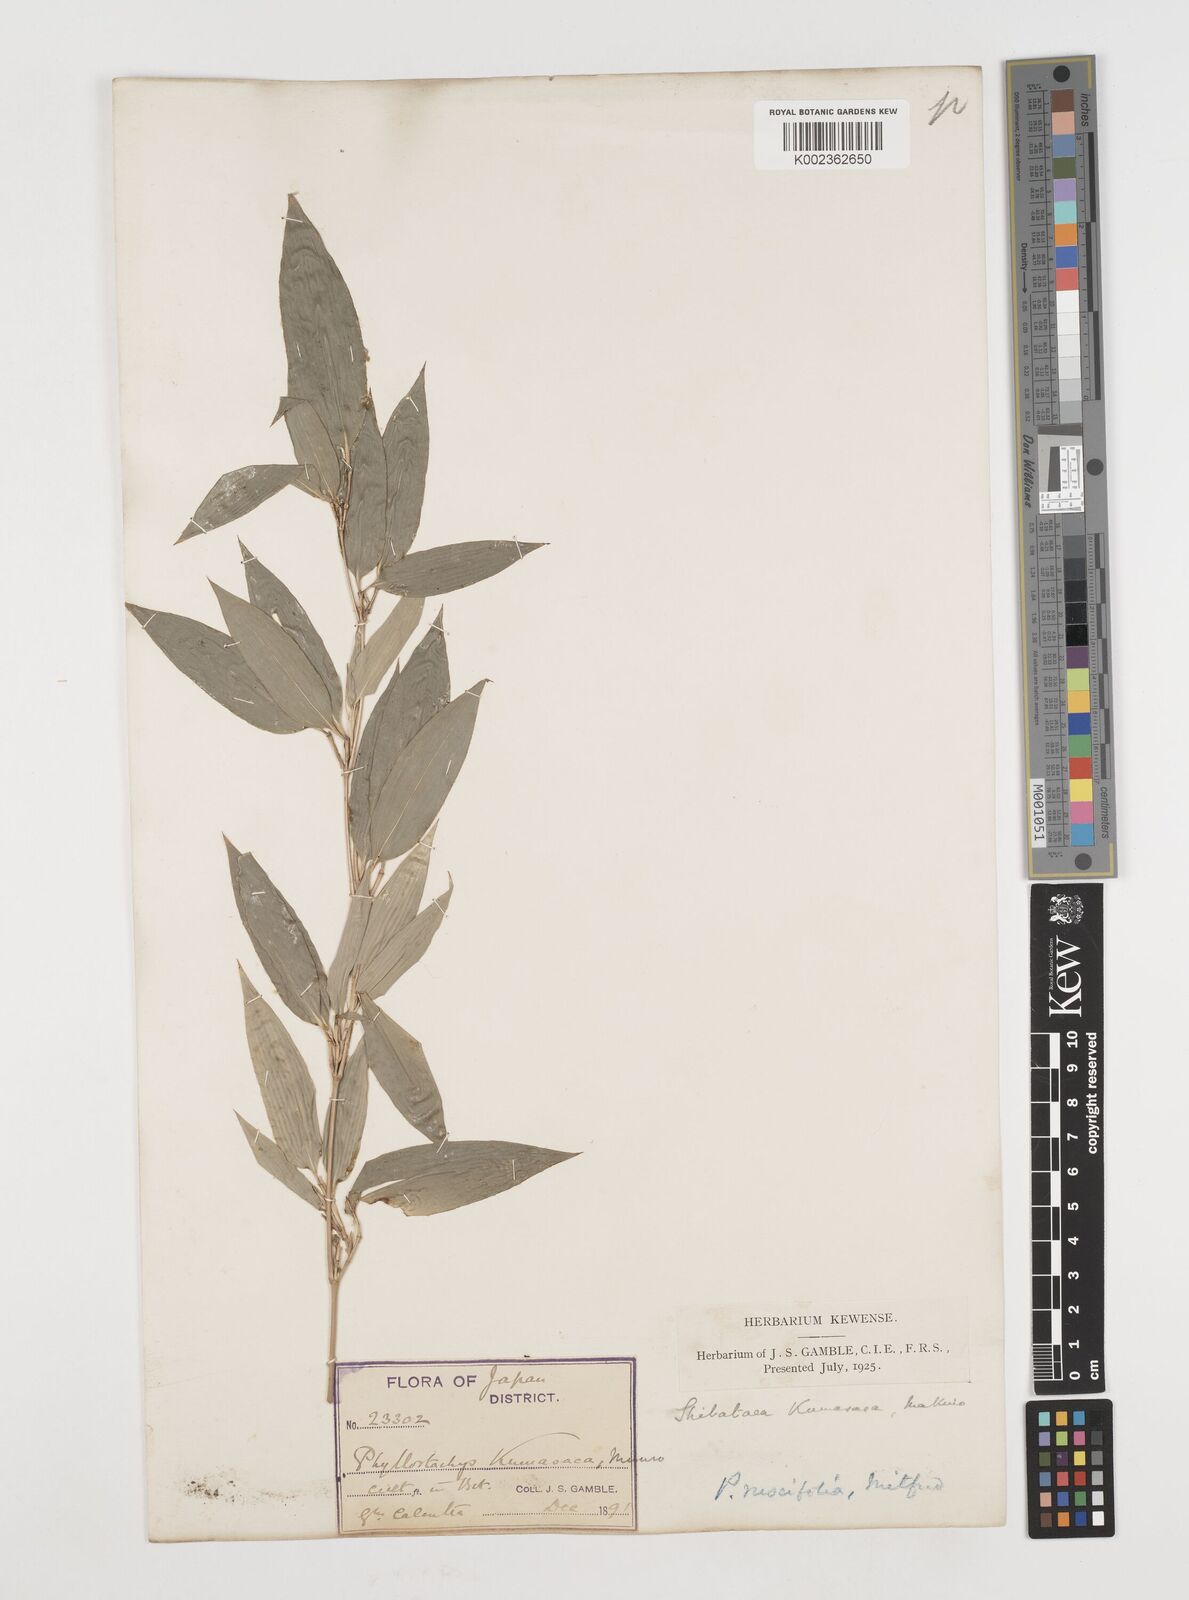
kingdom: Plantae
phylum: Tracheophyta
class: Liliopsida
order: Poales
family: Poaceae
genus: Shibataea
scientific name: Shibataea kumasasa
